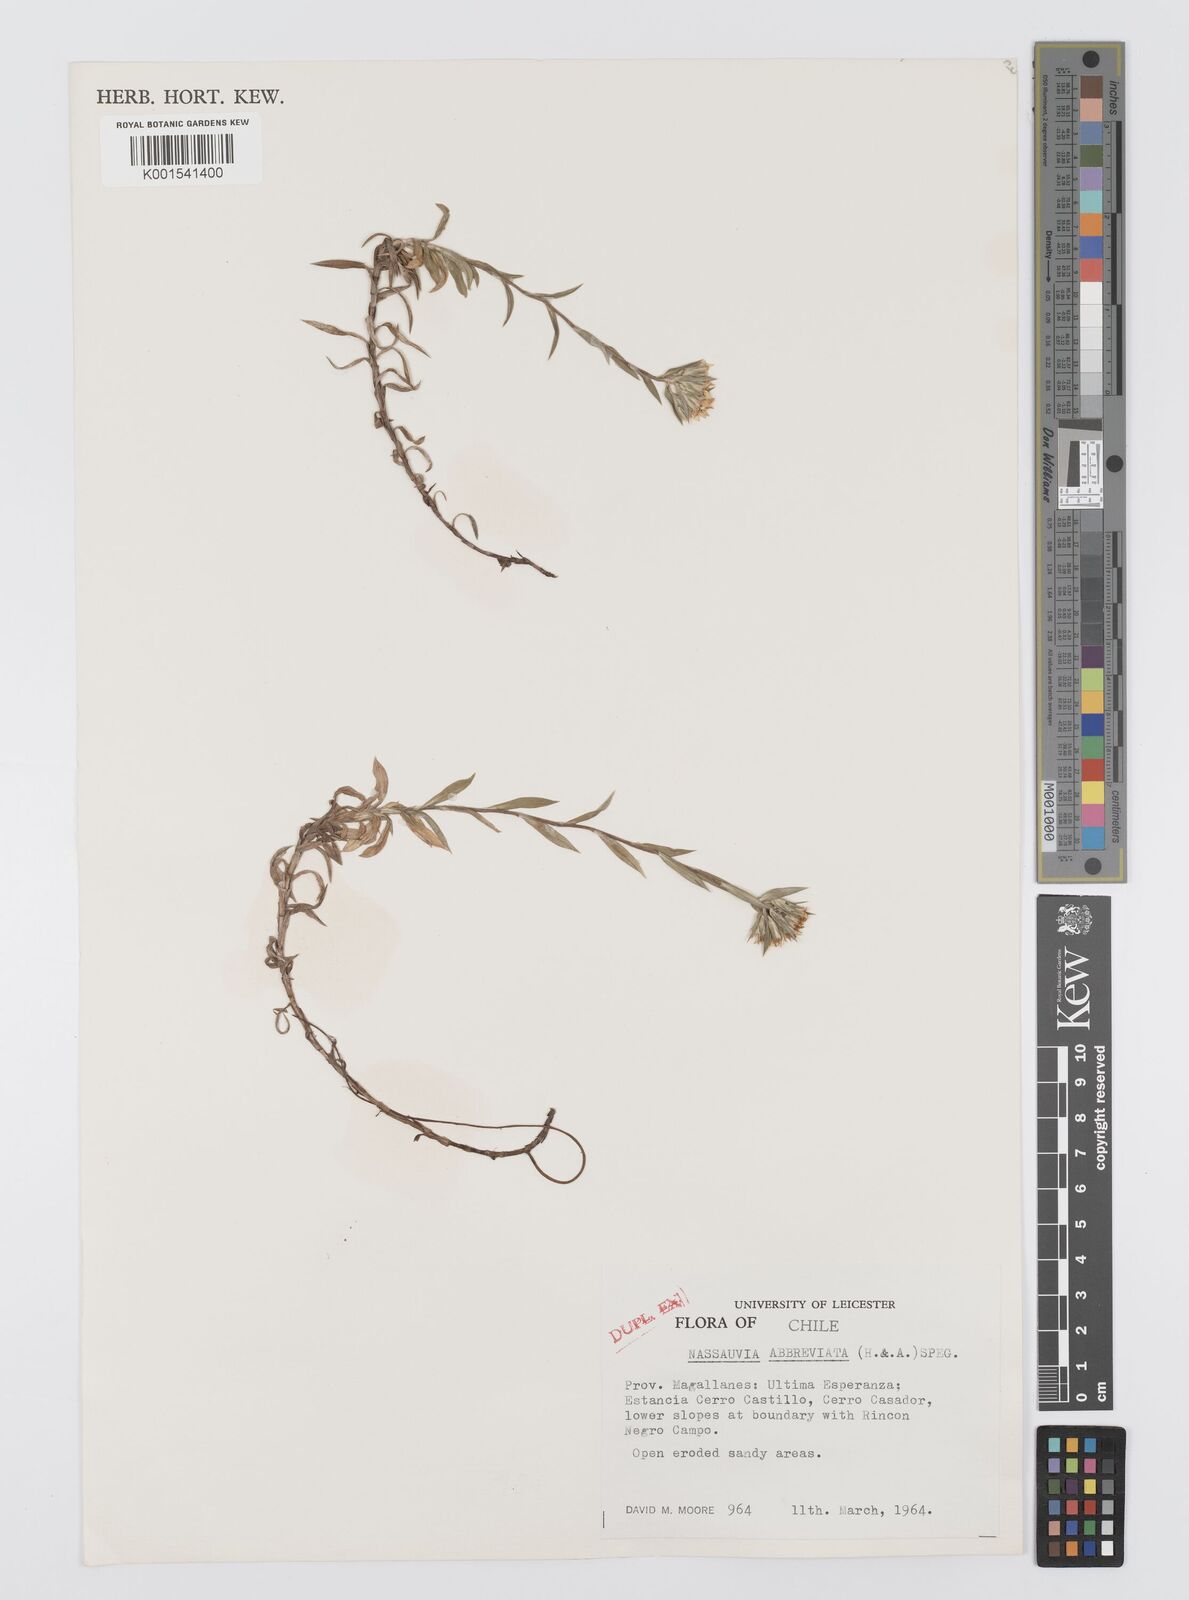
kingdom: Plantae
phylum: Tracheophyta
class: Magnoliopsida
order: Asterales
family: Asteraceae
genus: Nassauvia
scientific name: Nassauvia aculeata
